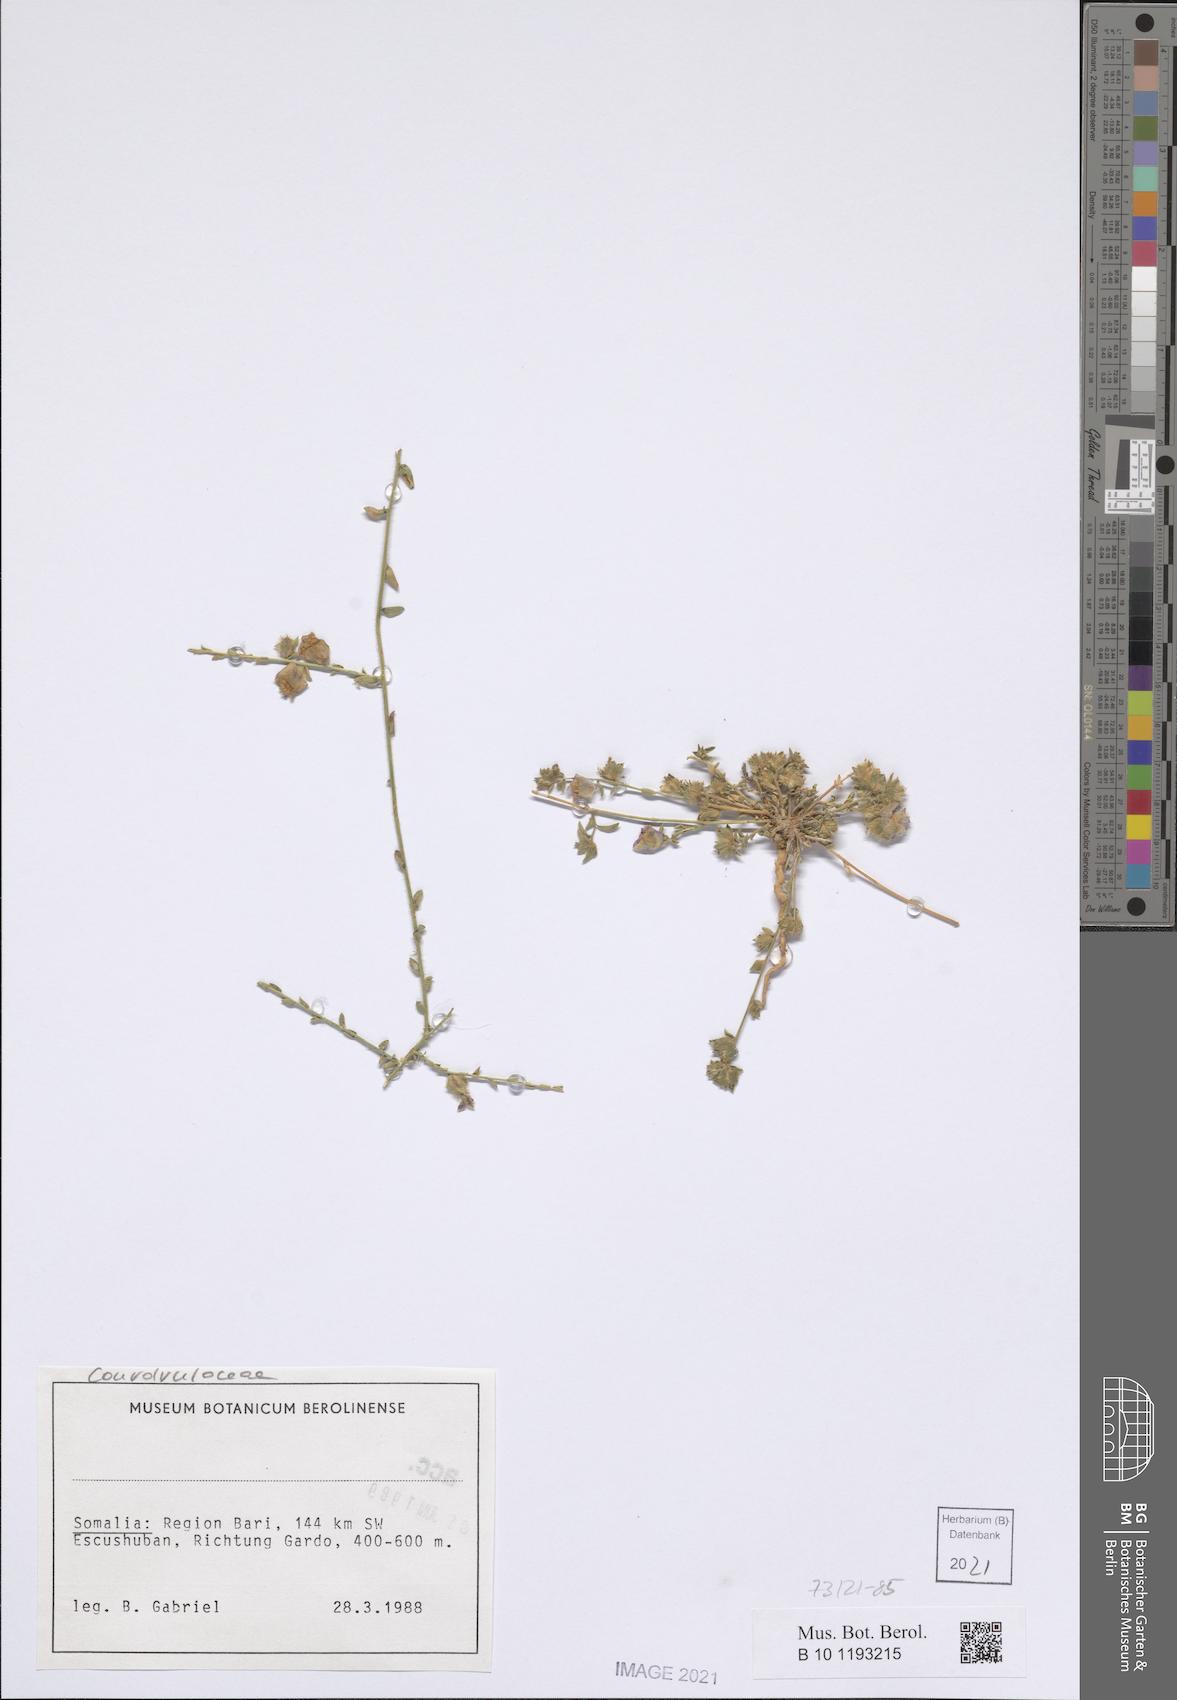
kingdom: Plantae
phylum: Tracheophyta
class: Magnoliopsida
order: Solanales
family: Convolvulaceae
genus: Convolvulus
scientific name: Convolvulus rhyniospermus
